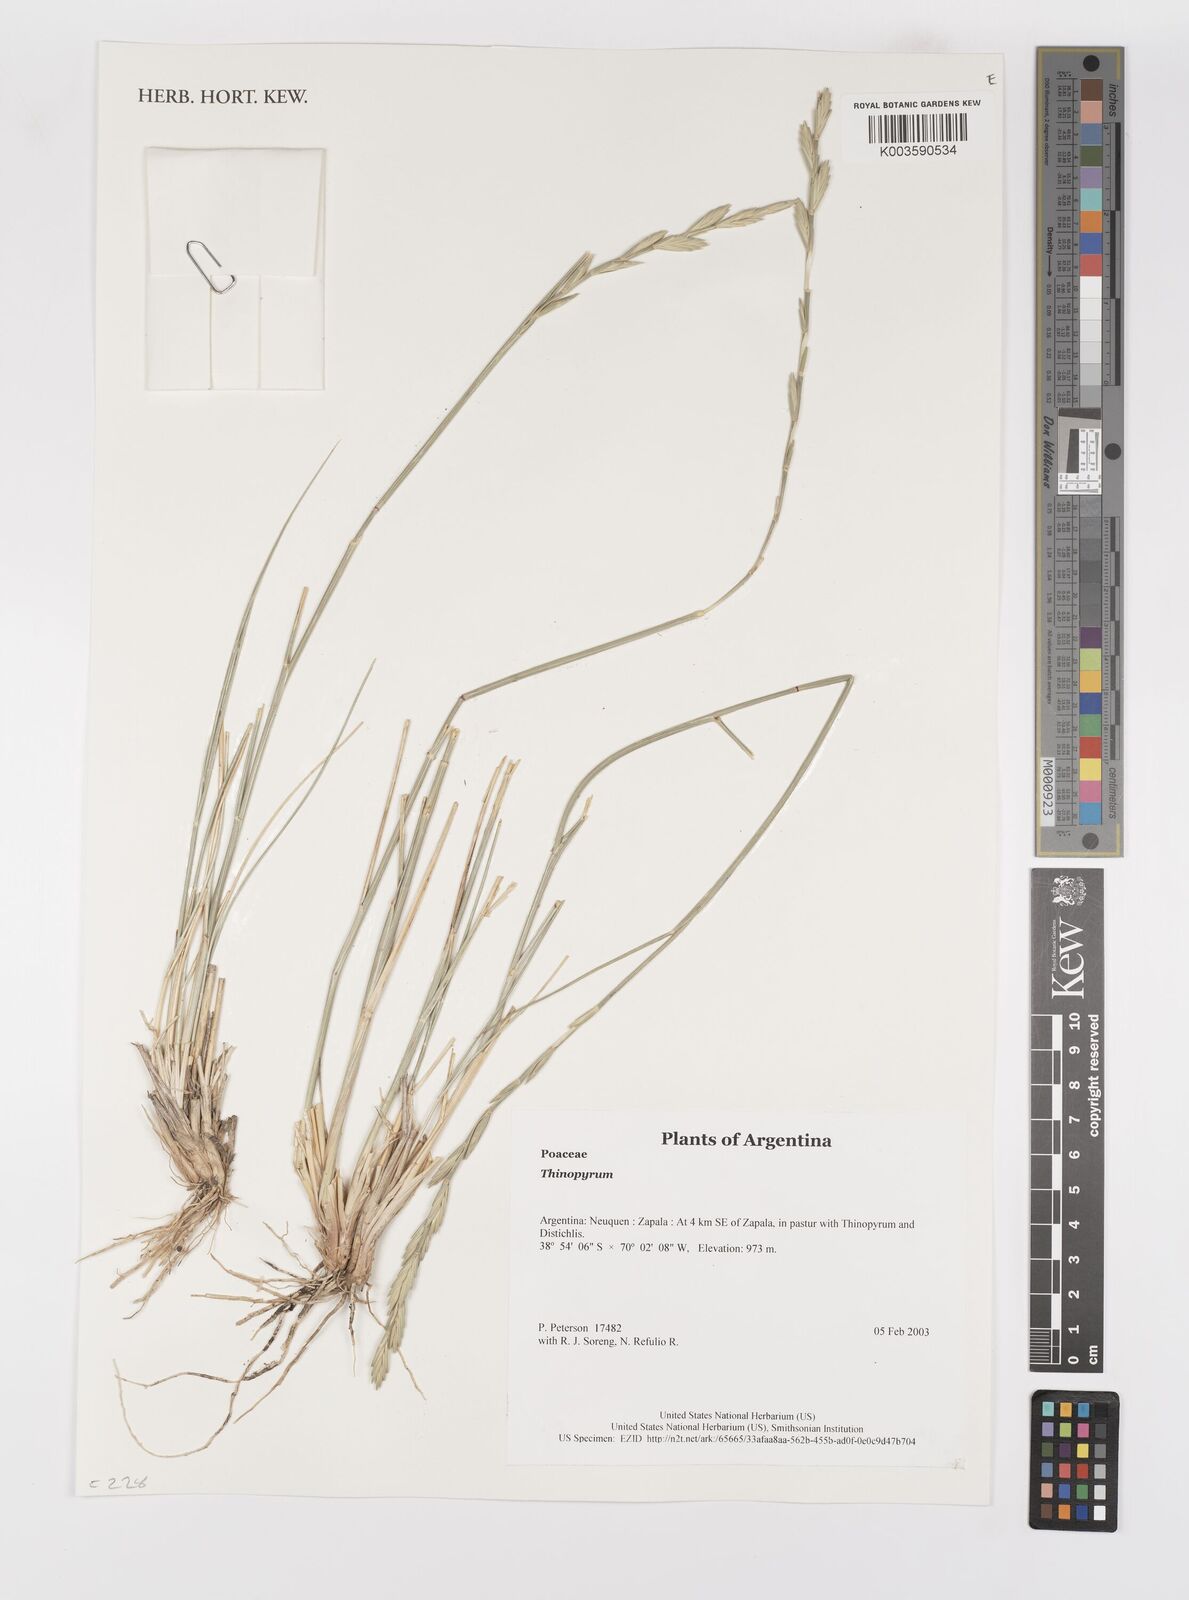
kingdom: Plantae
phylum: Tracheophyta
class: Liliopsida
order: Poales
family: Poaceae
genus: Elymus
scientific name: Elymus
